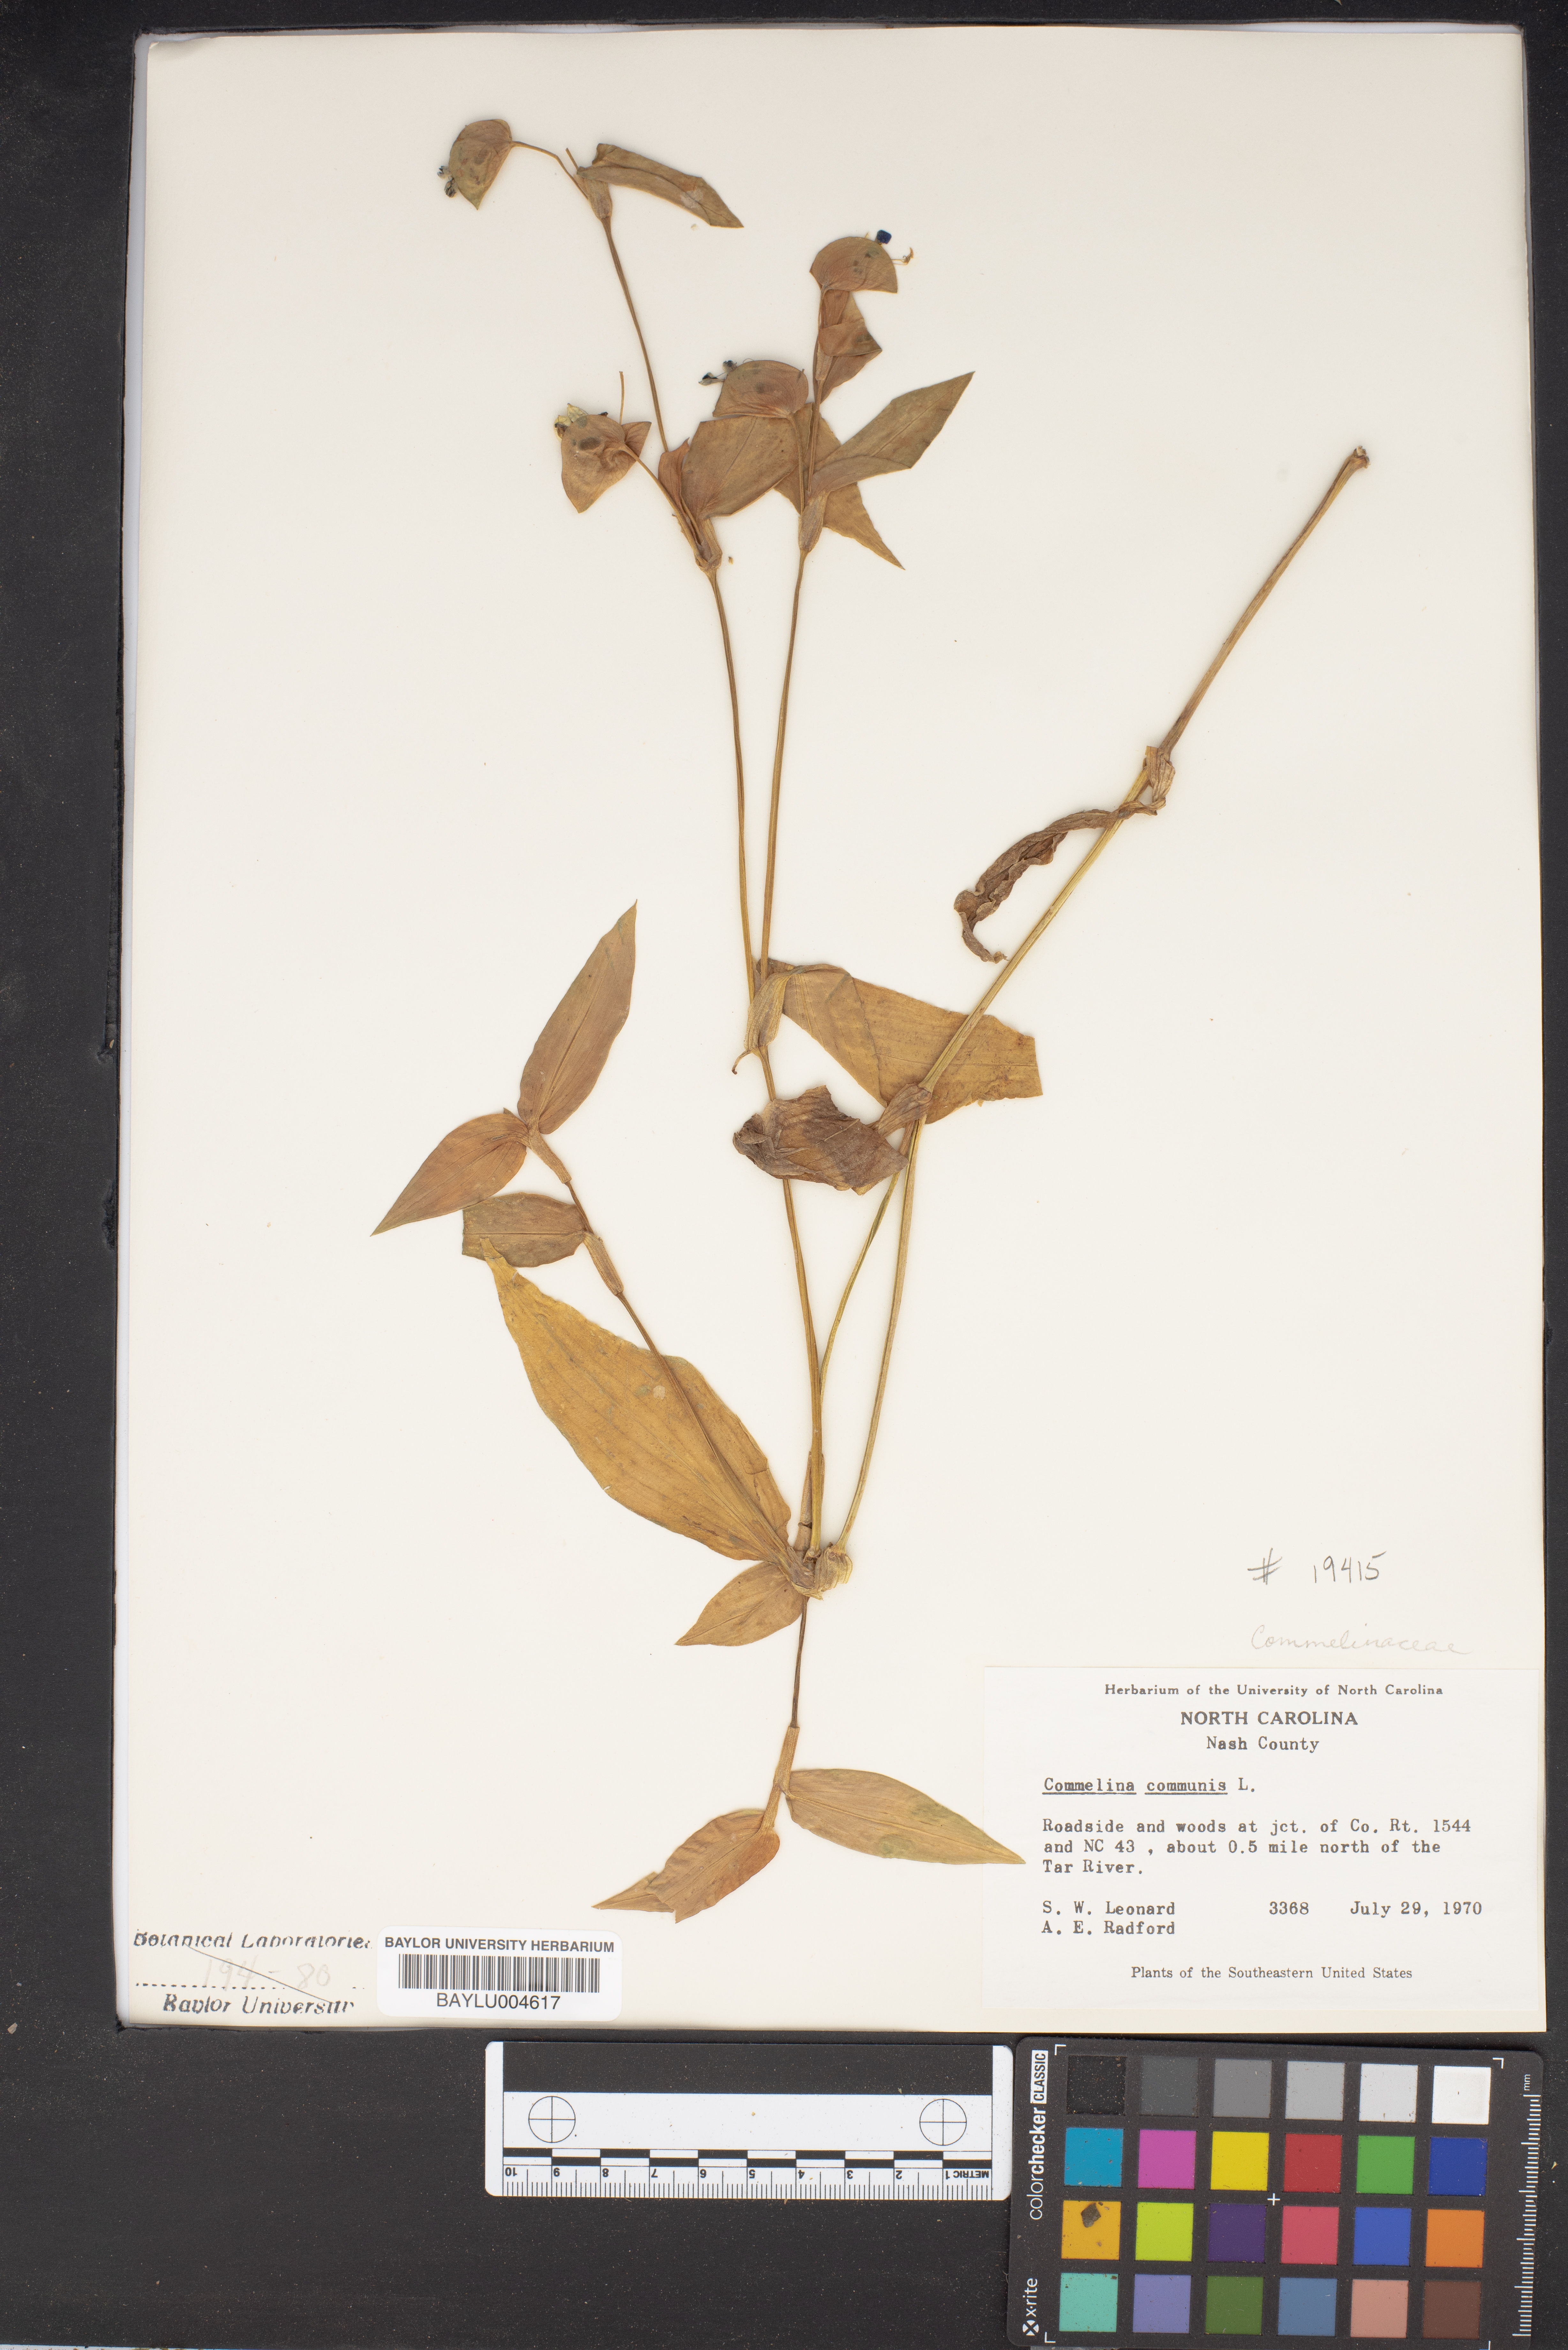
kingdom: Plantae
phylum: Tracheophyta
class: Liliopsida
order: Commelinales
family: Commelinaceae
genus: Commelina
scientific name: Commelina communis
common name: Asiatic dayflower
